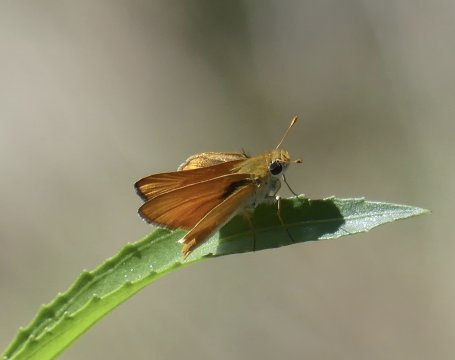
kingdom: Animalia
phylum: Arthropoda
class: Insecta
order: Lepidoptera
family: Hesperiidae
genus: Copaeodes
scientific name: Copaeodes aurantiaca
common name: Orange Skipperling
